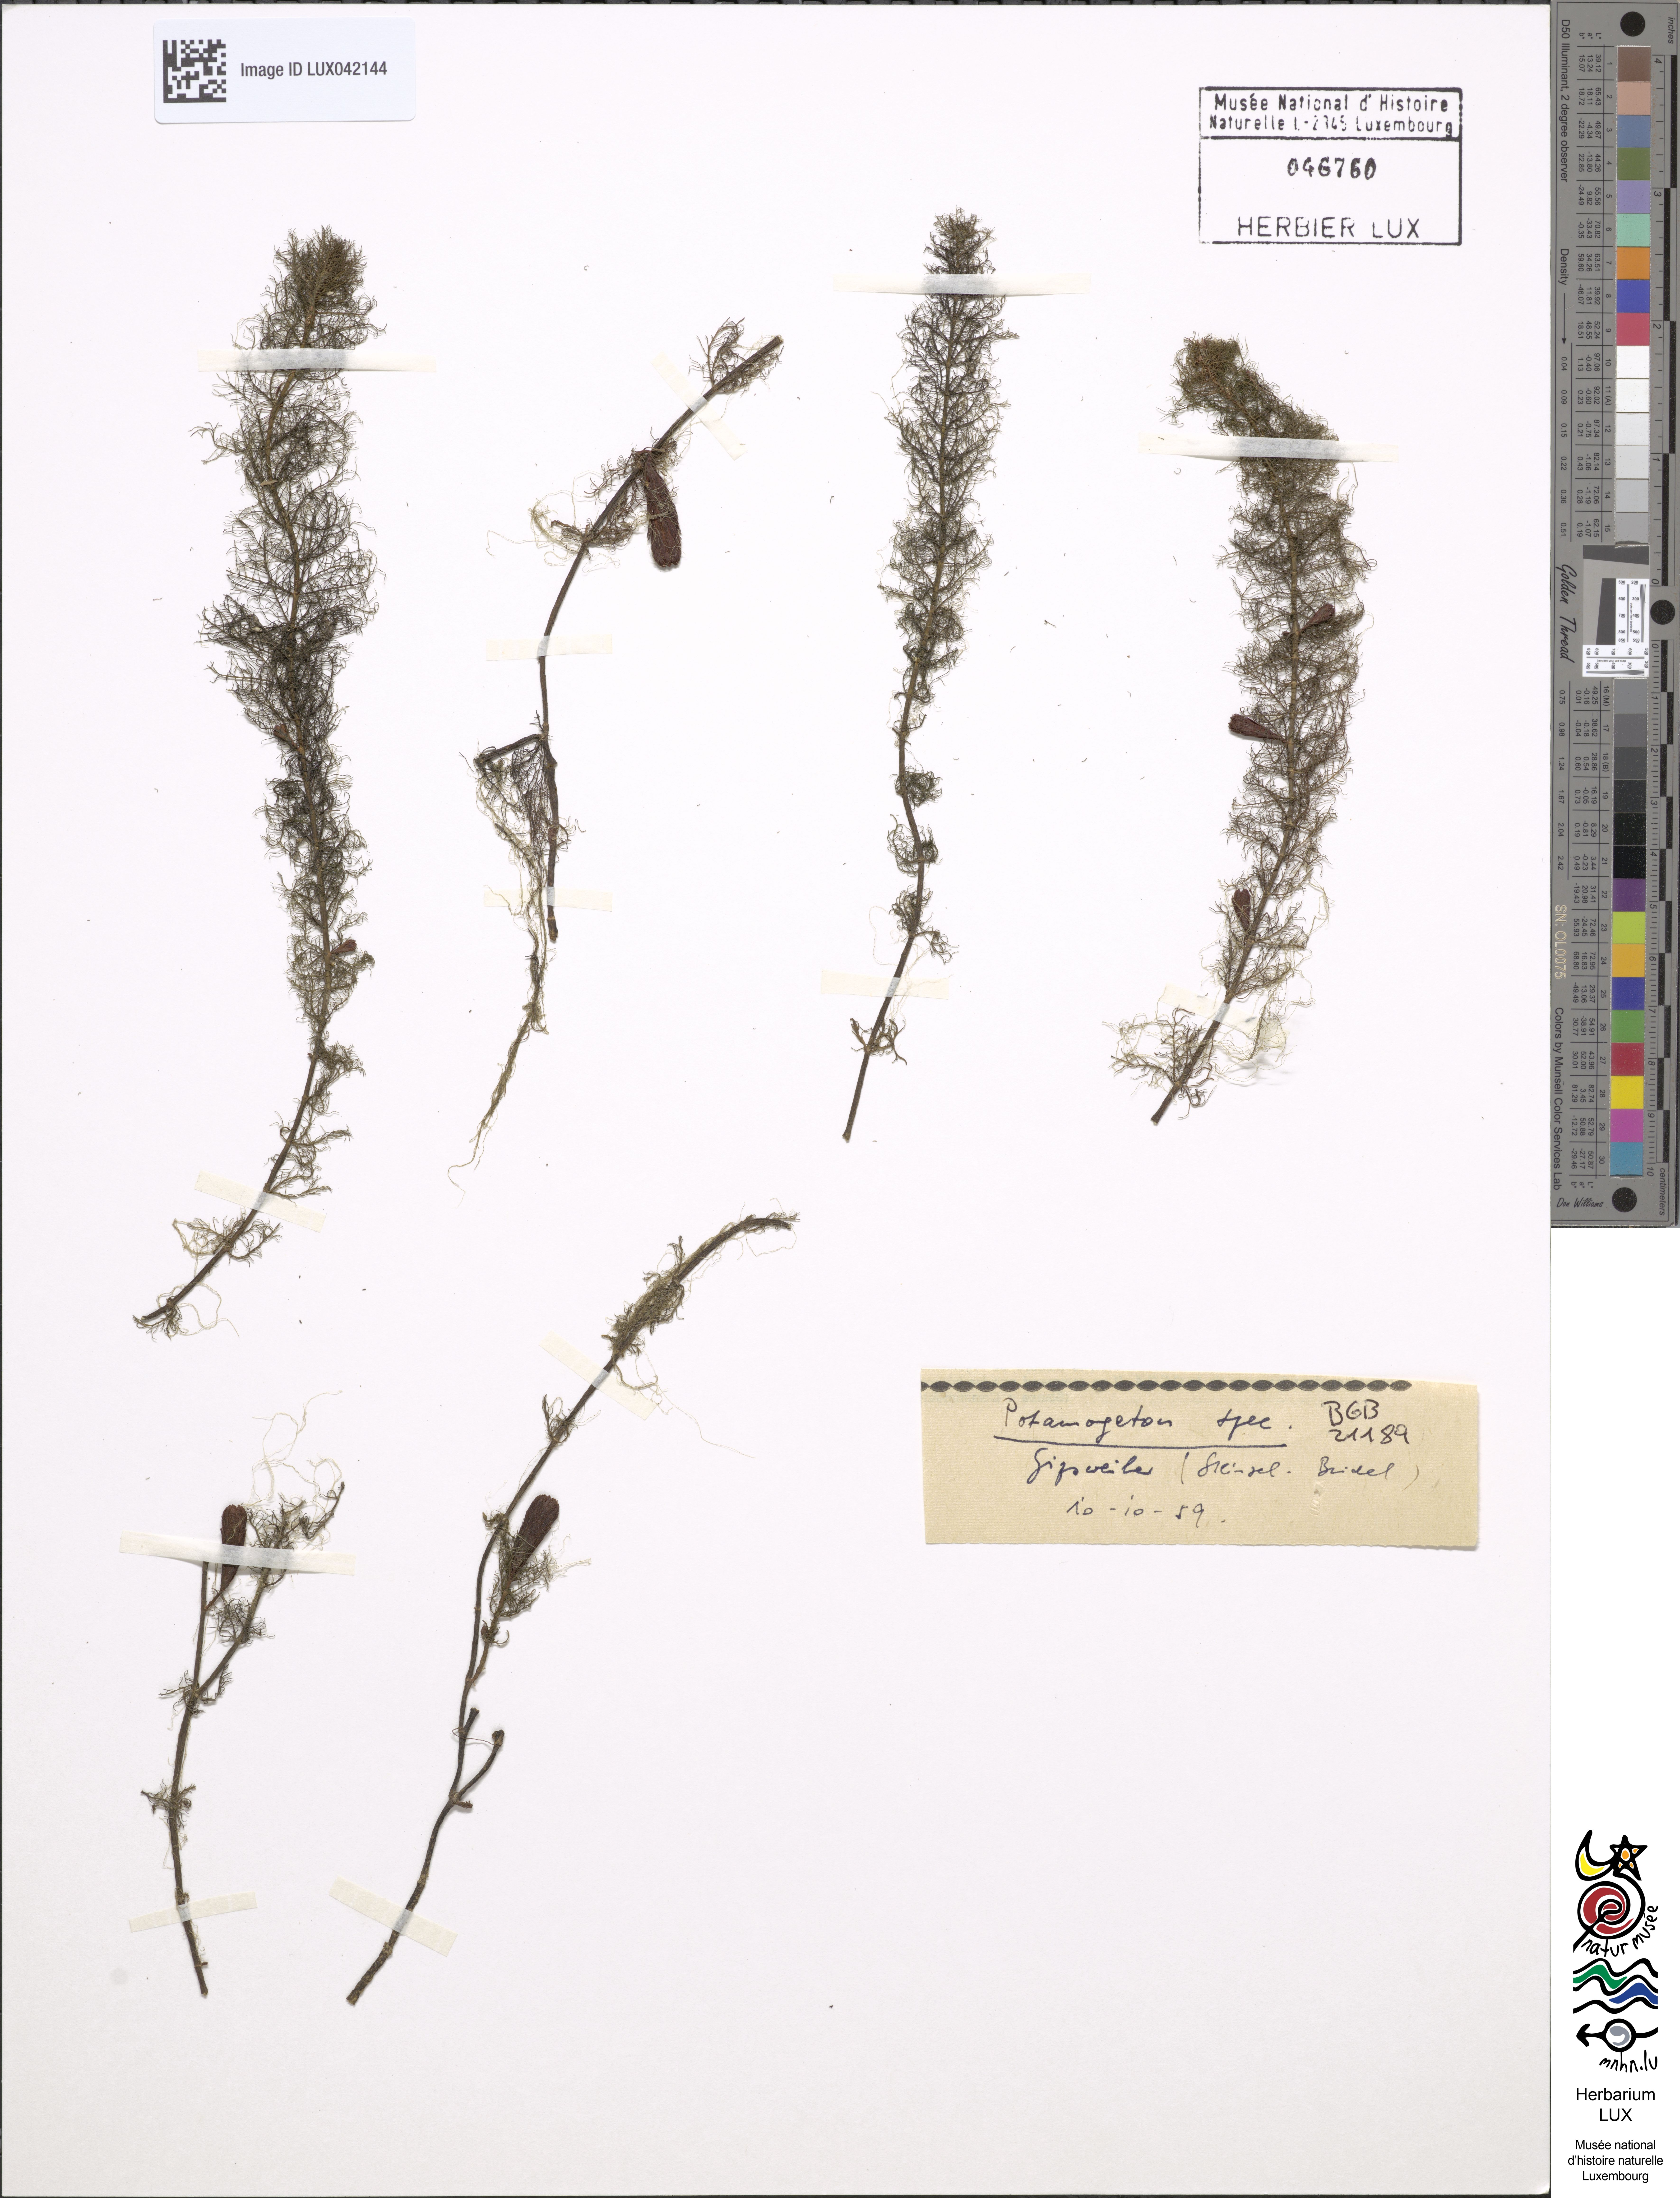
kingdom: Plantae
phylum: Tracheophyta
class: Liliopsida
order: Alismatales
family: Potamogetonaceae
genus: Potamogeton
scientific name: Potamogeton
